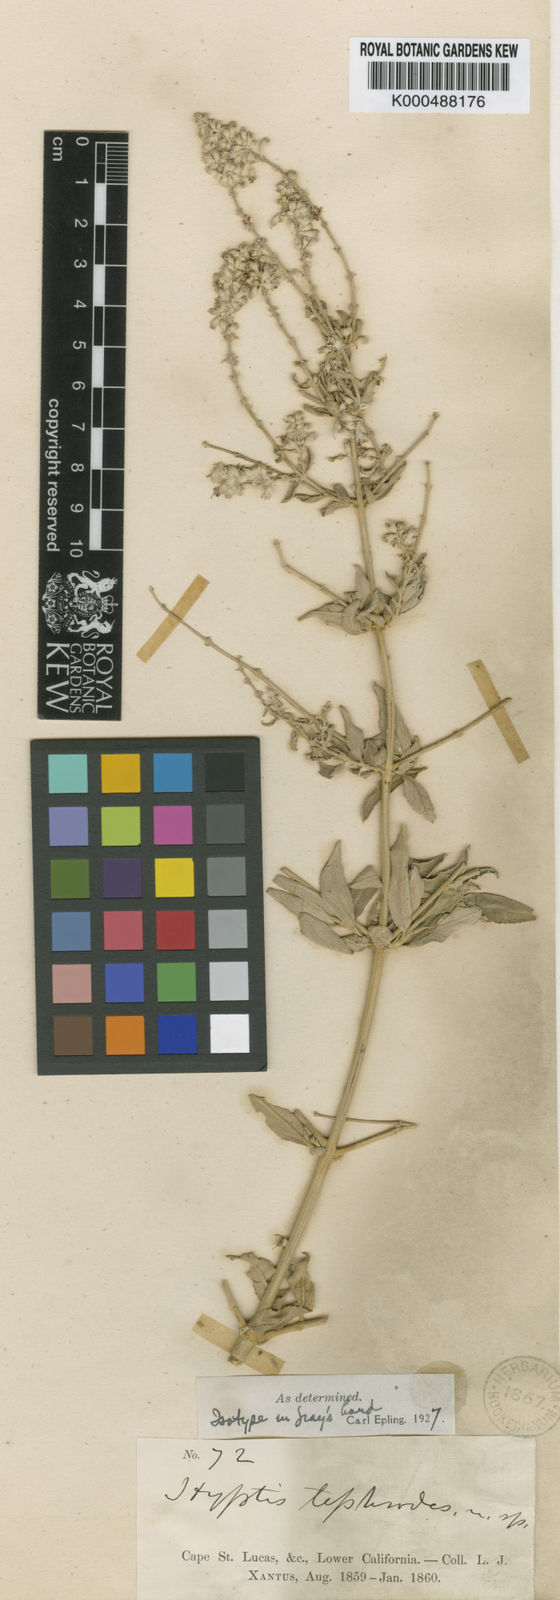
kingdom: Plantae
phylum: Tracheophyta
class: Magnoliopsida
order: Lamiales
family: Lamiaceae
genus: Condea
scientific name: Condea tephrodes
